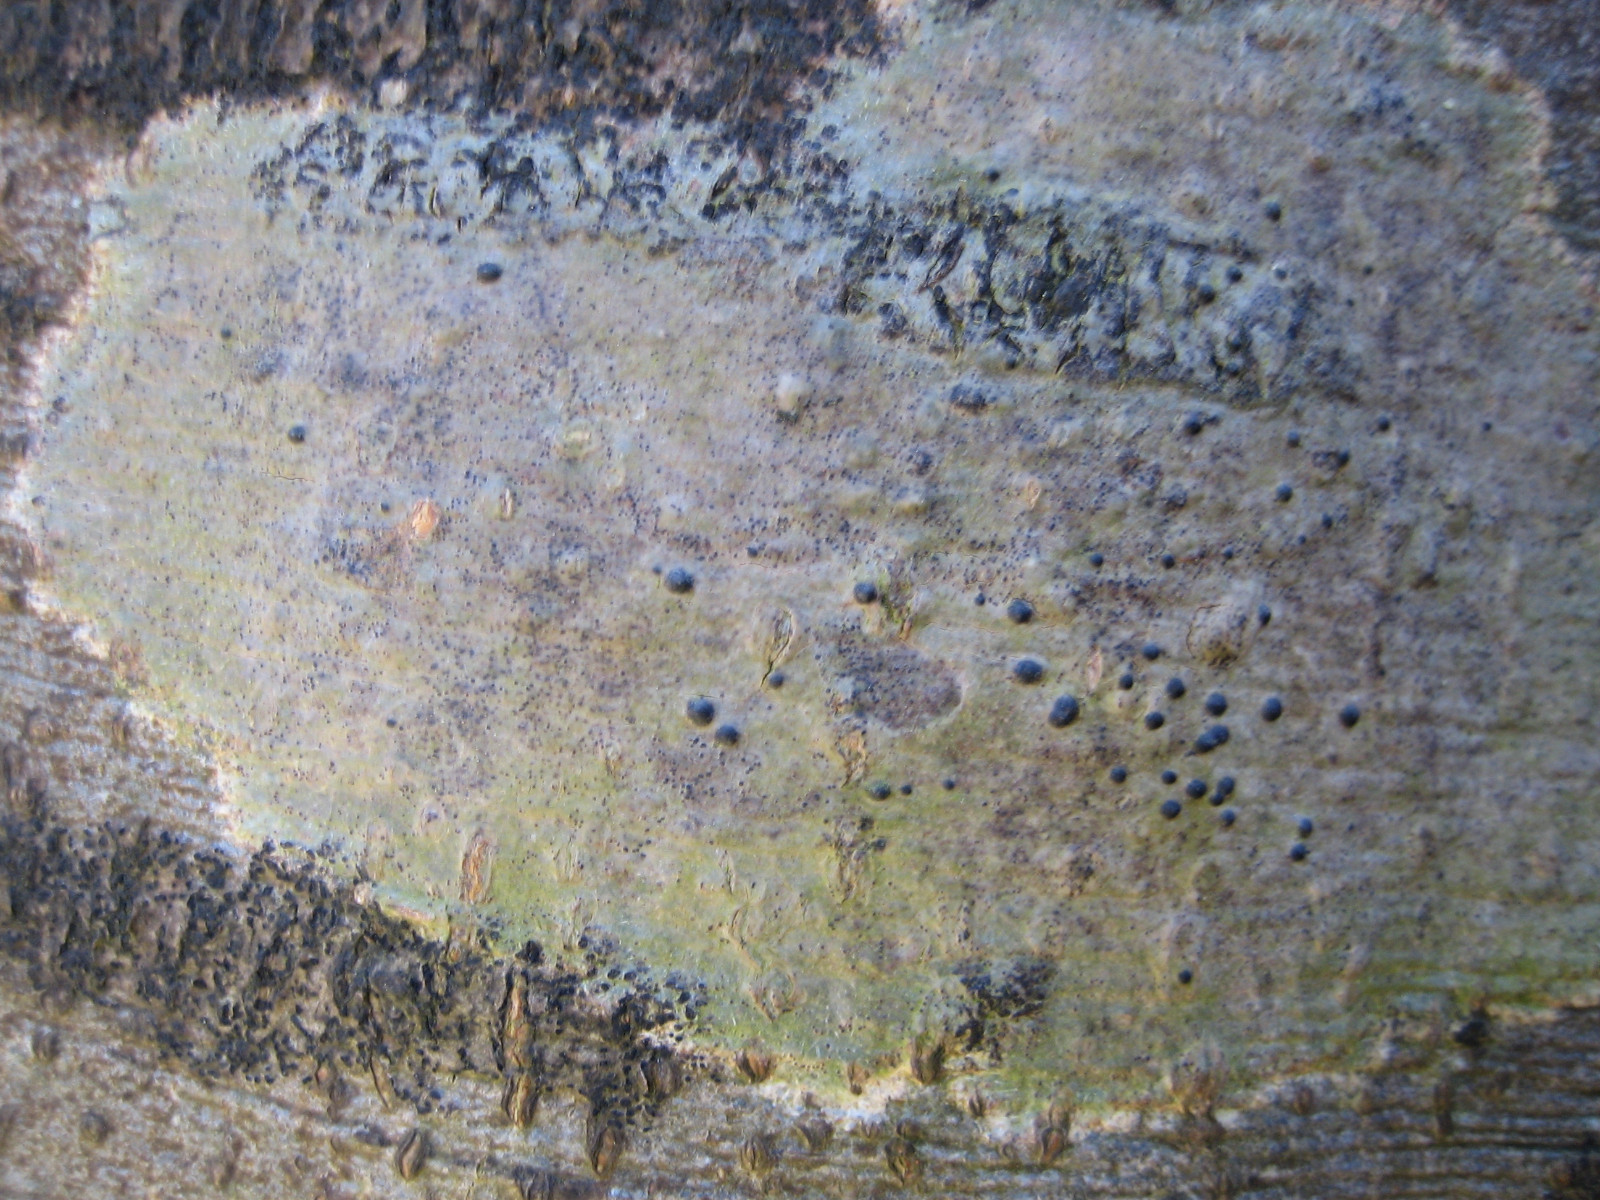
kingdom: Fungi
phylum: Ascomycota
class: Eurotiomycetes
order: Pyrenulales
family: Pyrenulaceae
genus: Pyrenula
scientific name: Pyrenula nitida
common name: glinsende kernelav
